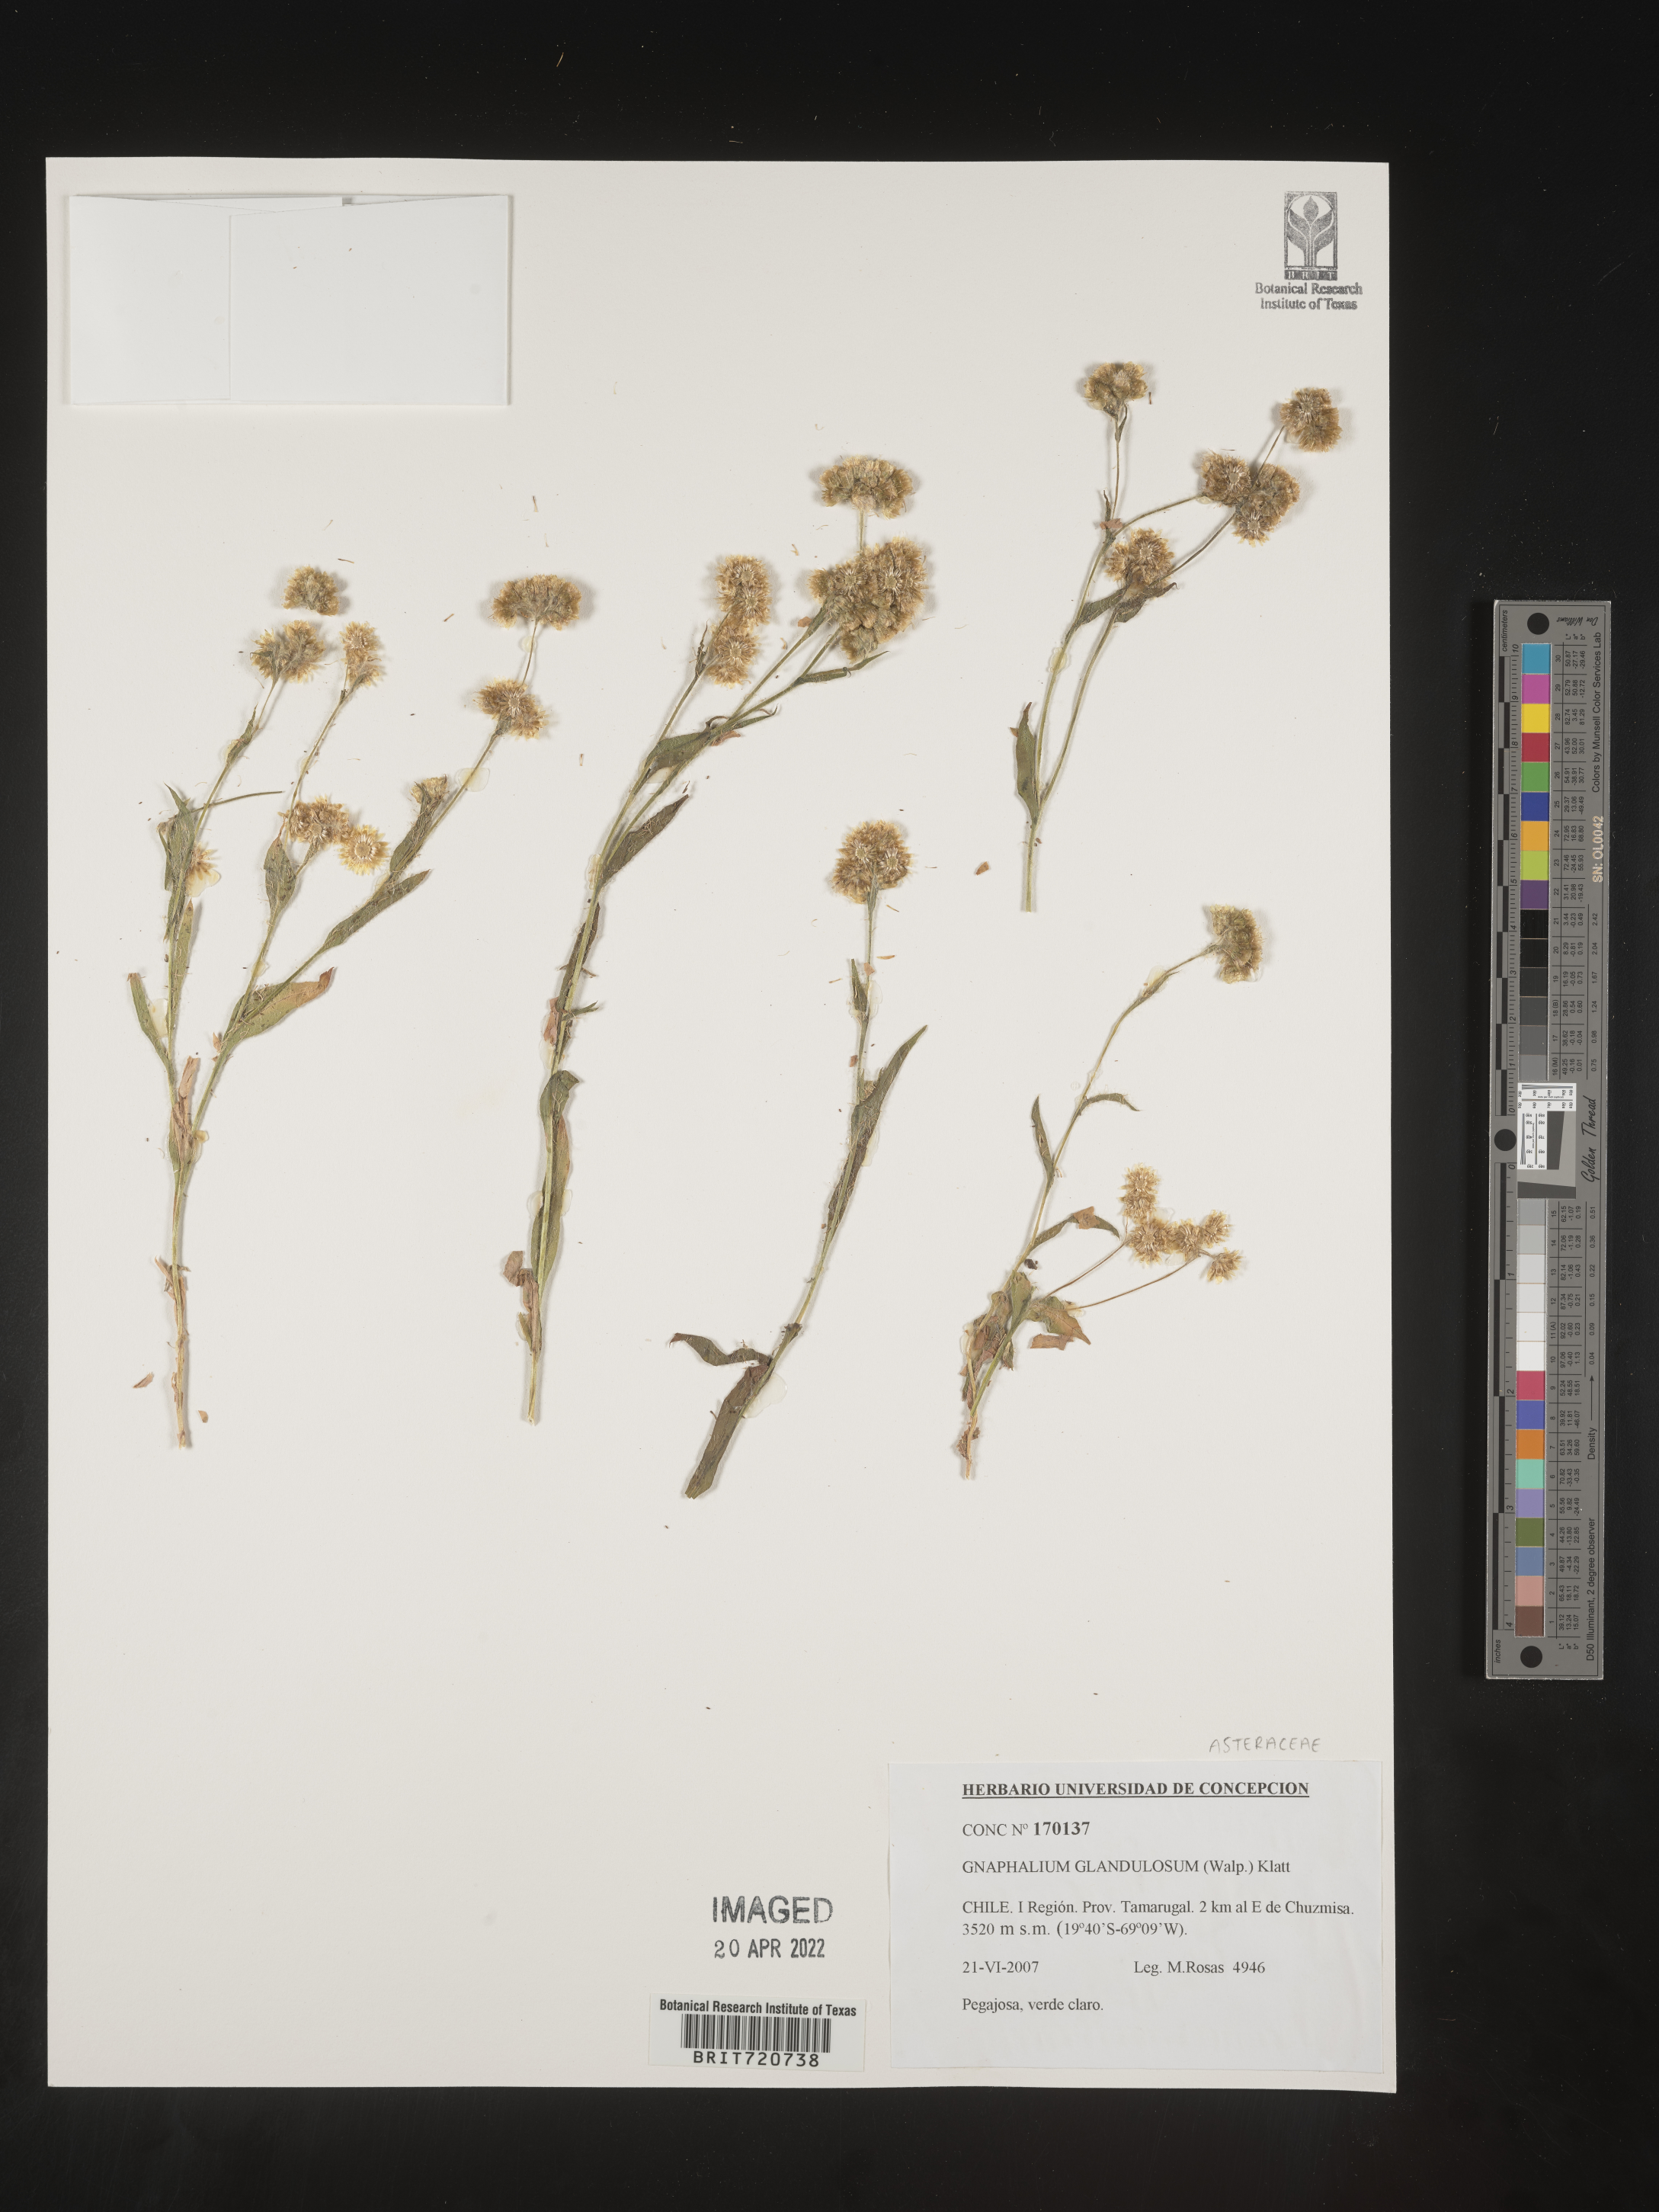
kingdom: Plantae
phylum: Tracheophyta
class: Magnoliopsida
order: Asterales
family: Asteraceae
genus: Gnaphalium
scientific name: Gnaphalium
